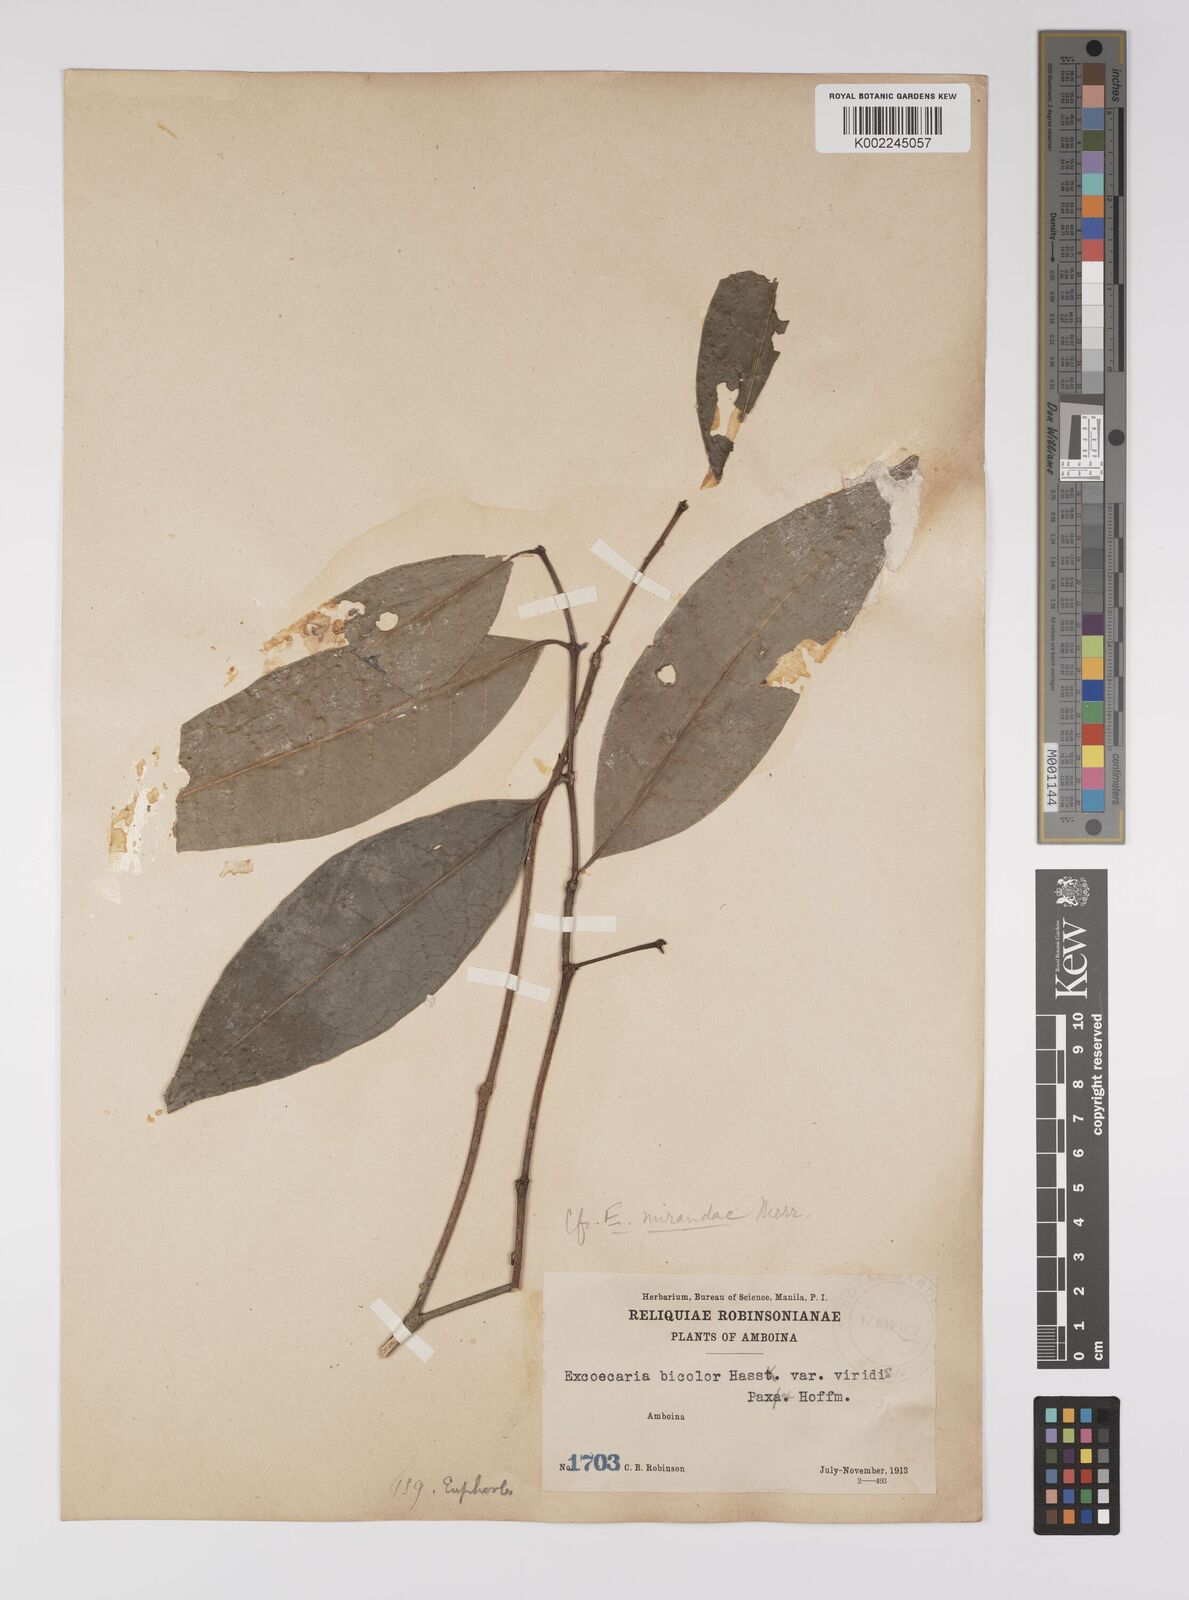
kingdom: Plantae
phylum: Tracheophyta
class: Magnoliopsida
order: Malpighiales
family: Euphorbiaceae
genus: Excoecaria
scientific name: Excoecaria borneensis
